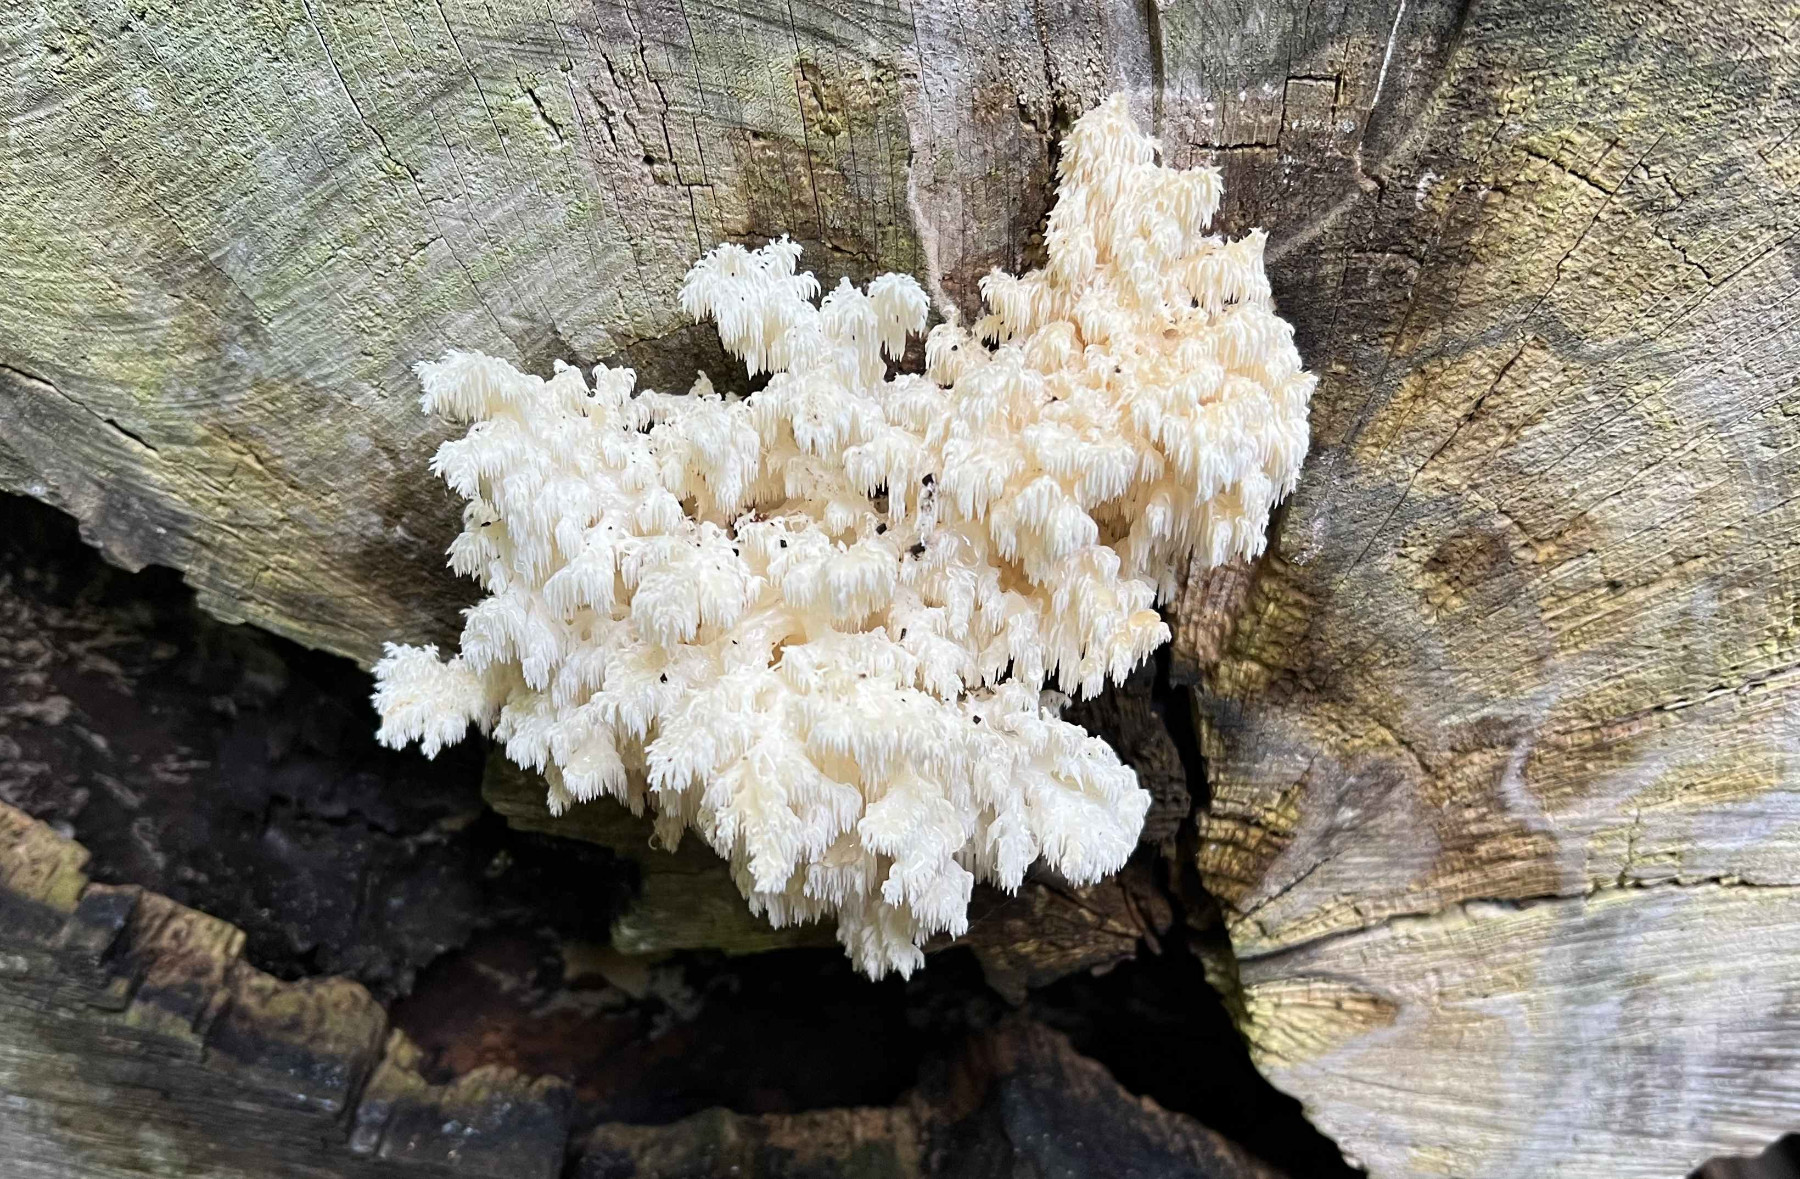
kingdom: Fungi
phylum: Basidiomycota
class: Agaricomycetes
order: Russulales
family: Hericiaceae
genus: Hericium
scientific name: Hericium coralloides
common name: koralpigsvamp
